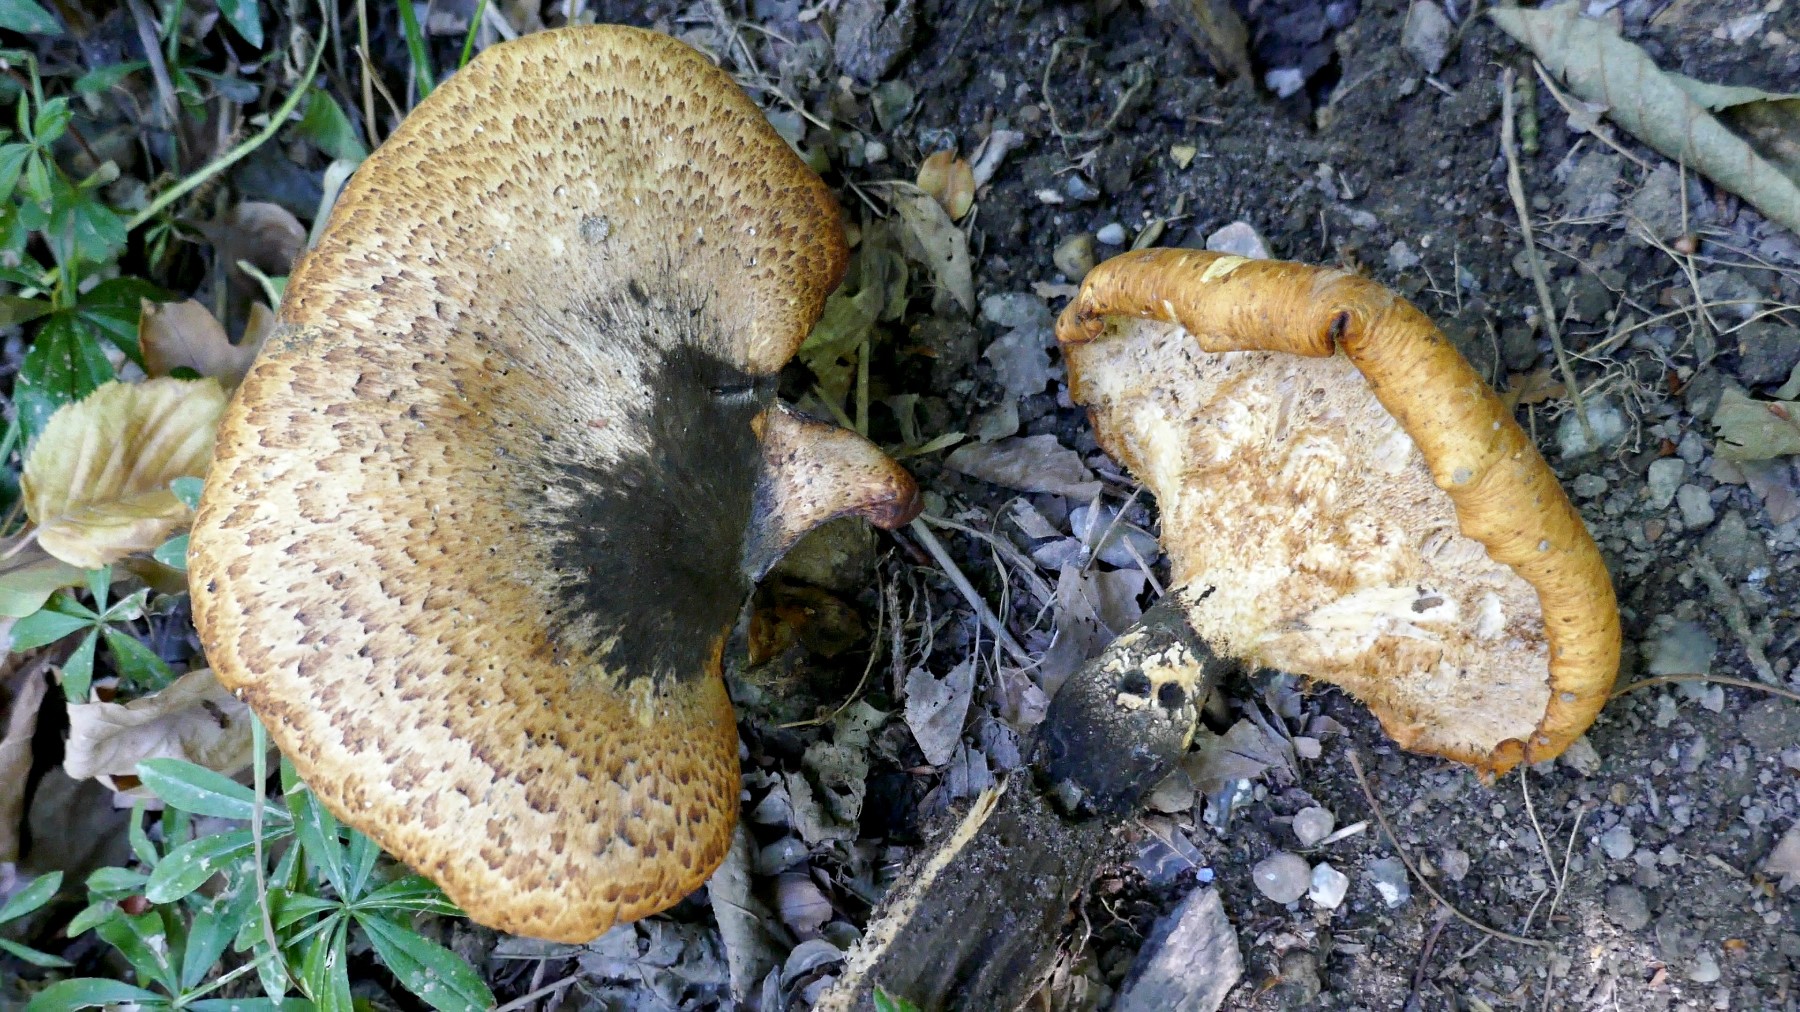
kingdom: Fungi
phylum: Basidiomycota
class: Agaricomycetes
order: Polyporales
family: Polyporaceae
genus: Cerioporus
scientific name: Cerioporus squamosus
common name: skællet stilkporesvamp
